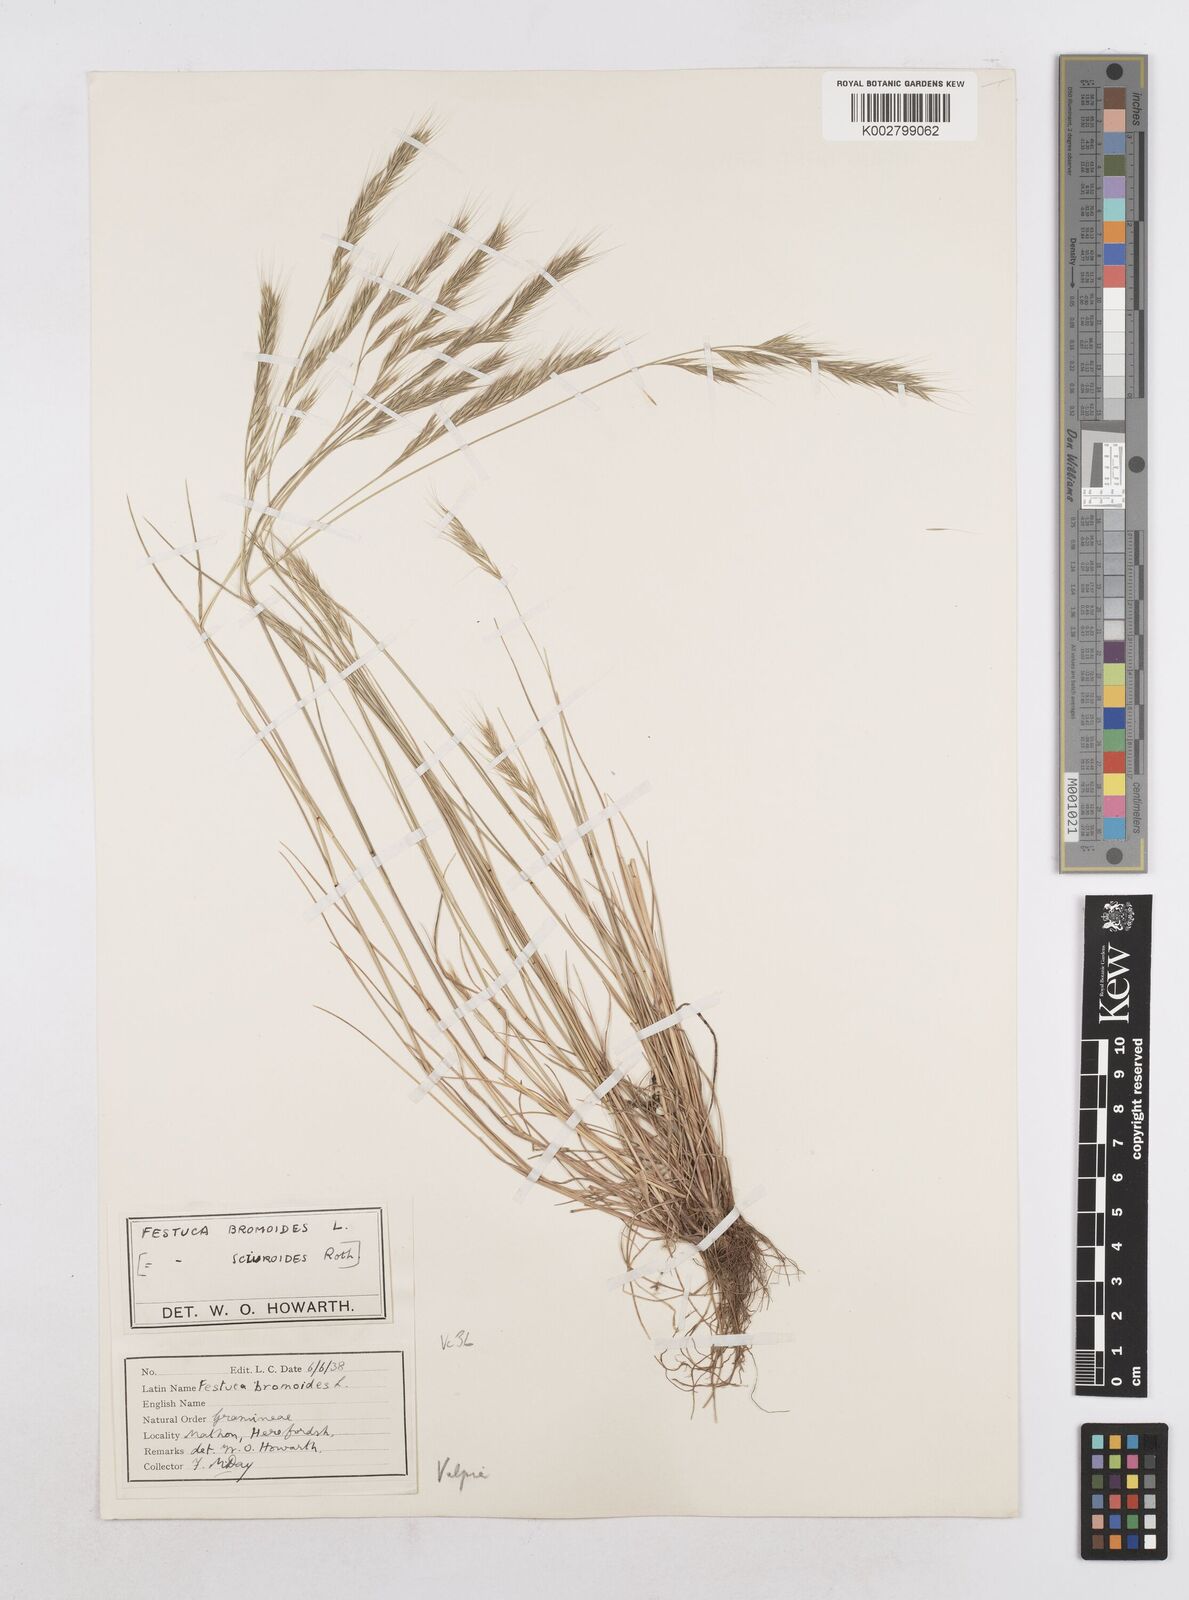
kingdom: Plantae
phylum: Tracheophyta
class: Liliopsida
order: Poales
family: Poaceae
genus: Festuca
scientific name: Festuca bromoides
